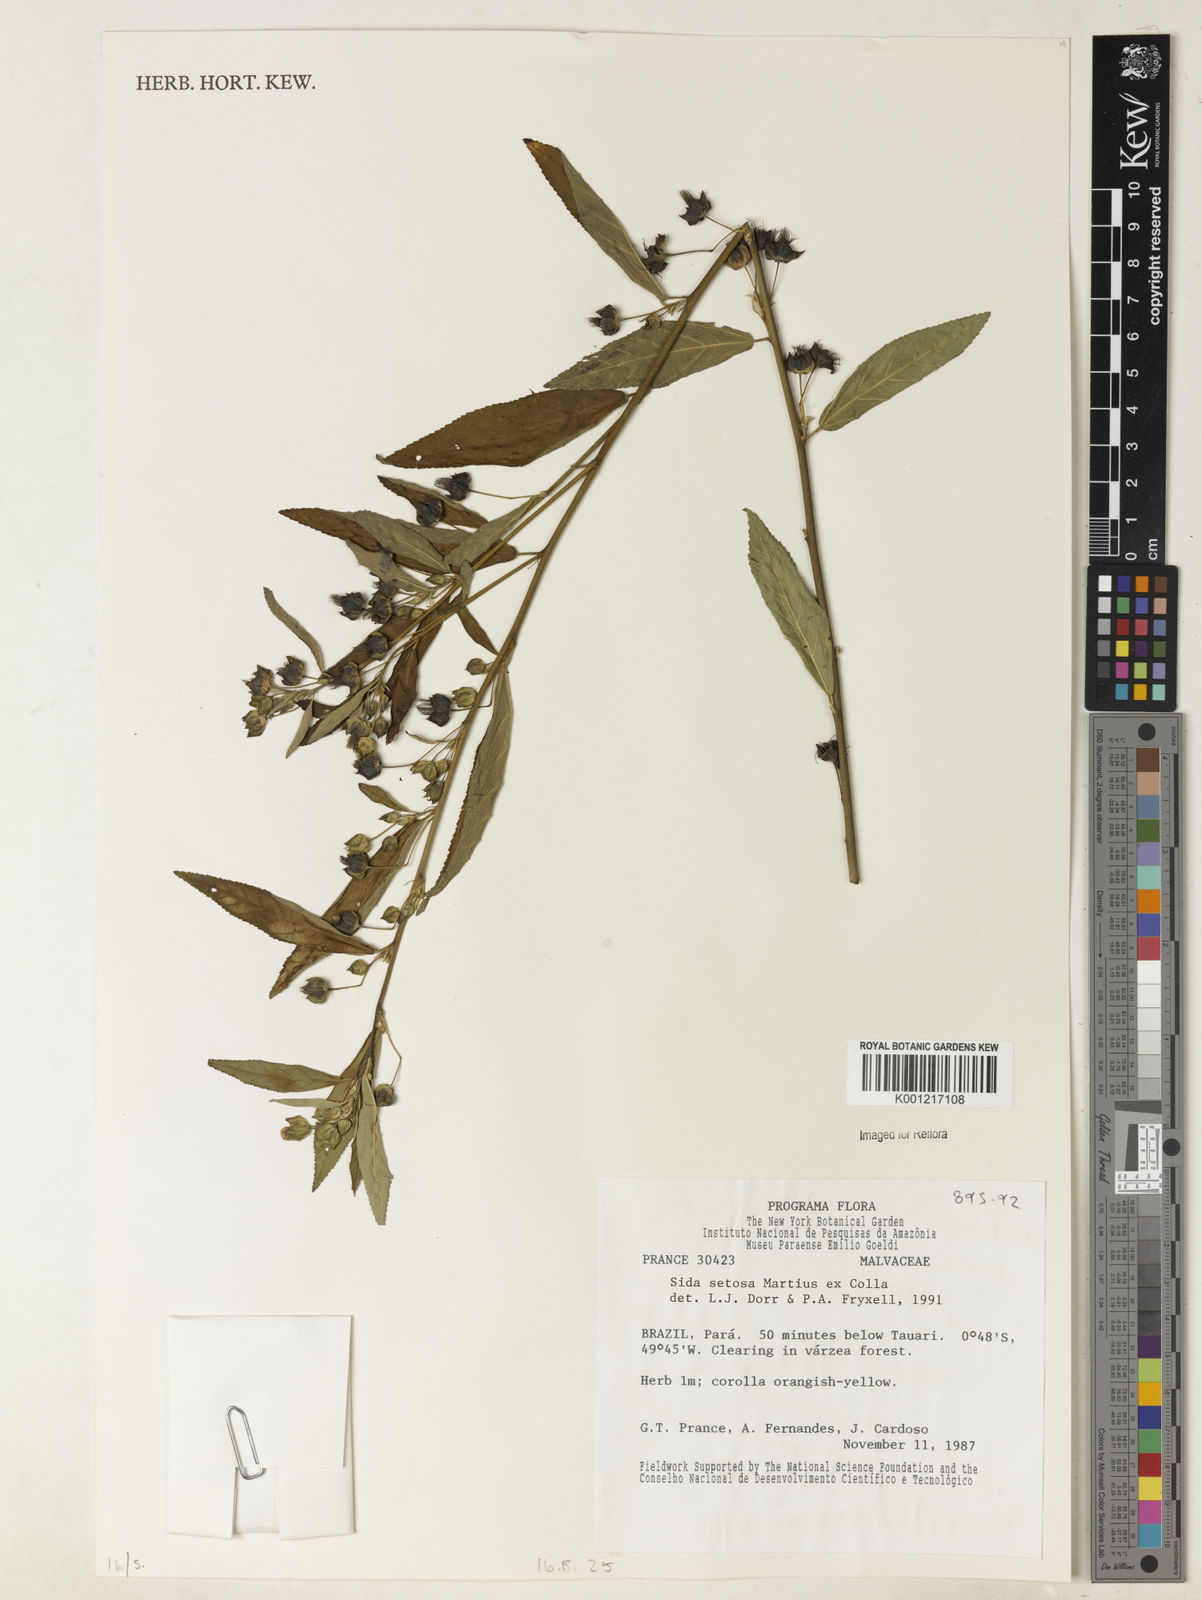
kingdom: Plantae
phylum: Tracheophyta
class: Magnoliopsida
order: Malvales
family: Malvaceae
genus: Sida
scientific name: Sida
